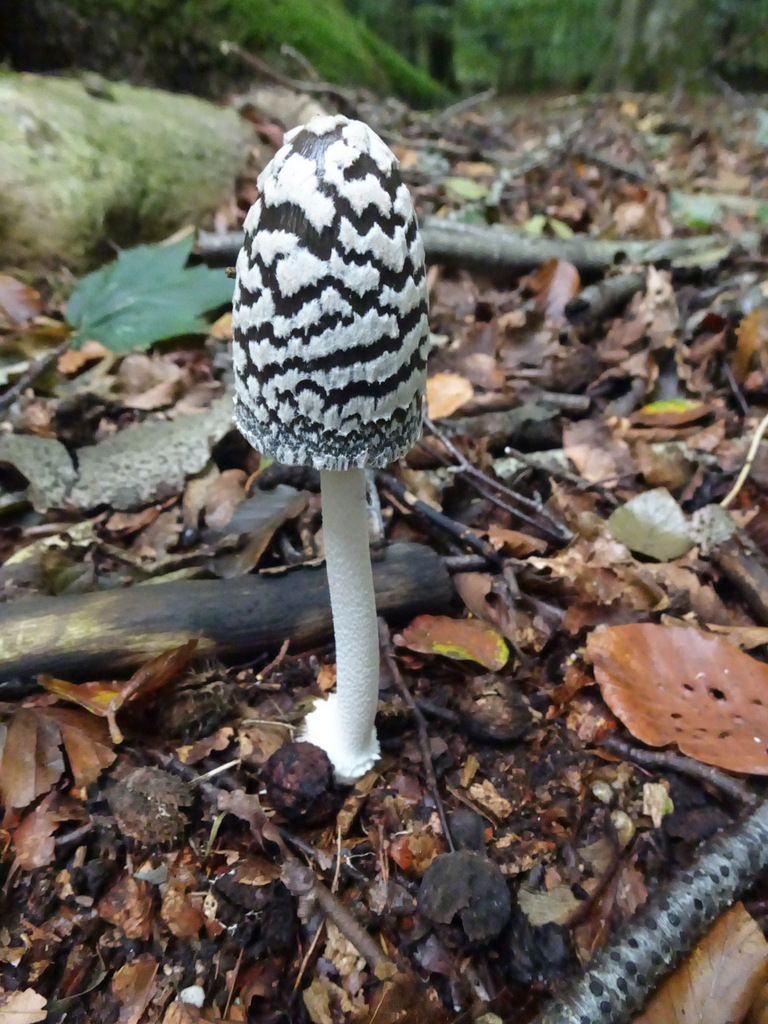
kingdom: Fungi
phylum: Basidiomycota
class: Agaricomycetes
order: Agaricales
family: Psathyrellaceae
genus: Coprinopsis
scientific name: Coprinopsis picacea
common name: skade-blækhat
